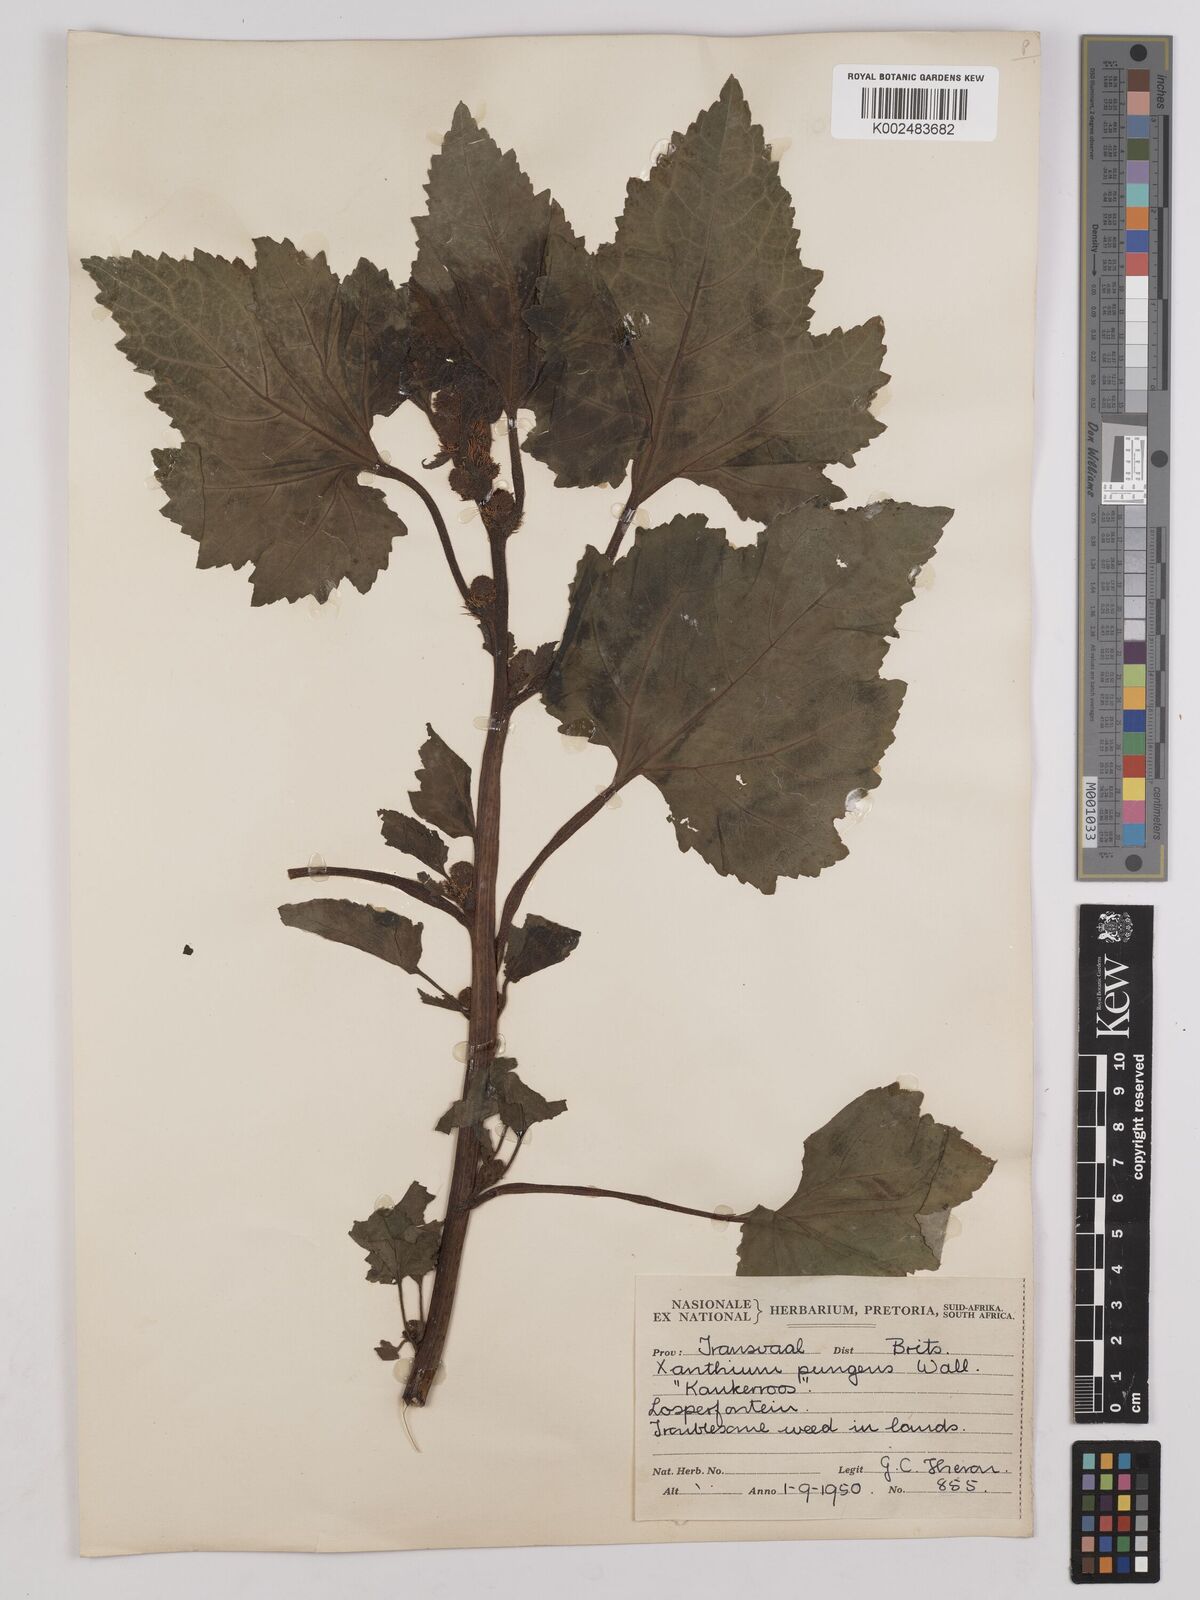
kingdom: Plantae
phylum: Tracheophyta
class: Magnoliopsida
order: Asterales
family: Asteraceae
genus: Xanthium
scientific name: Xanthium occidentale
